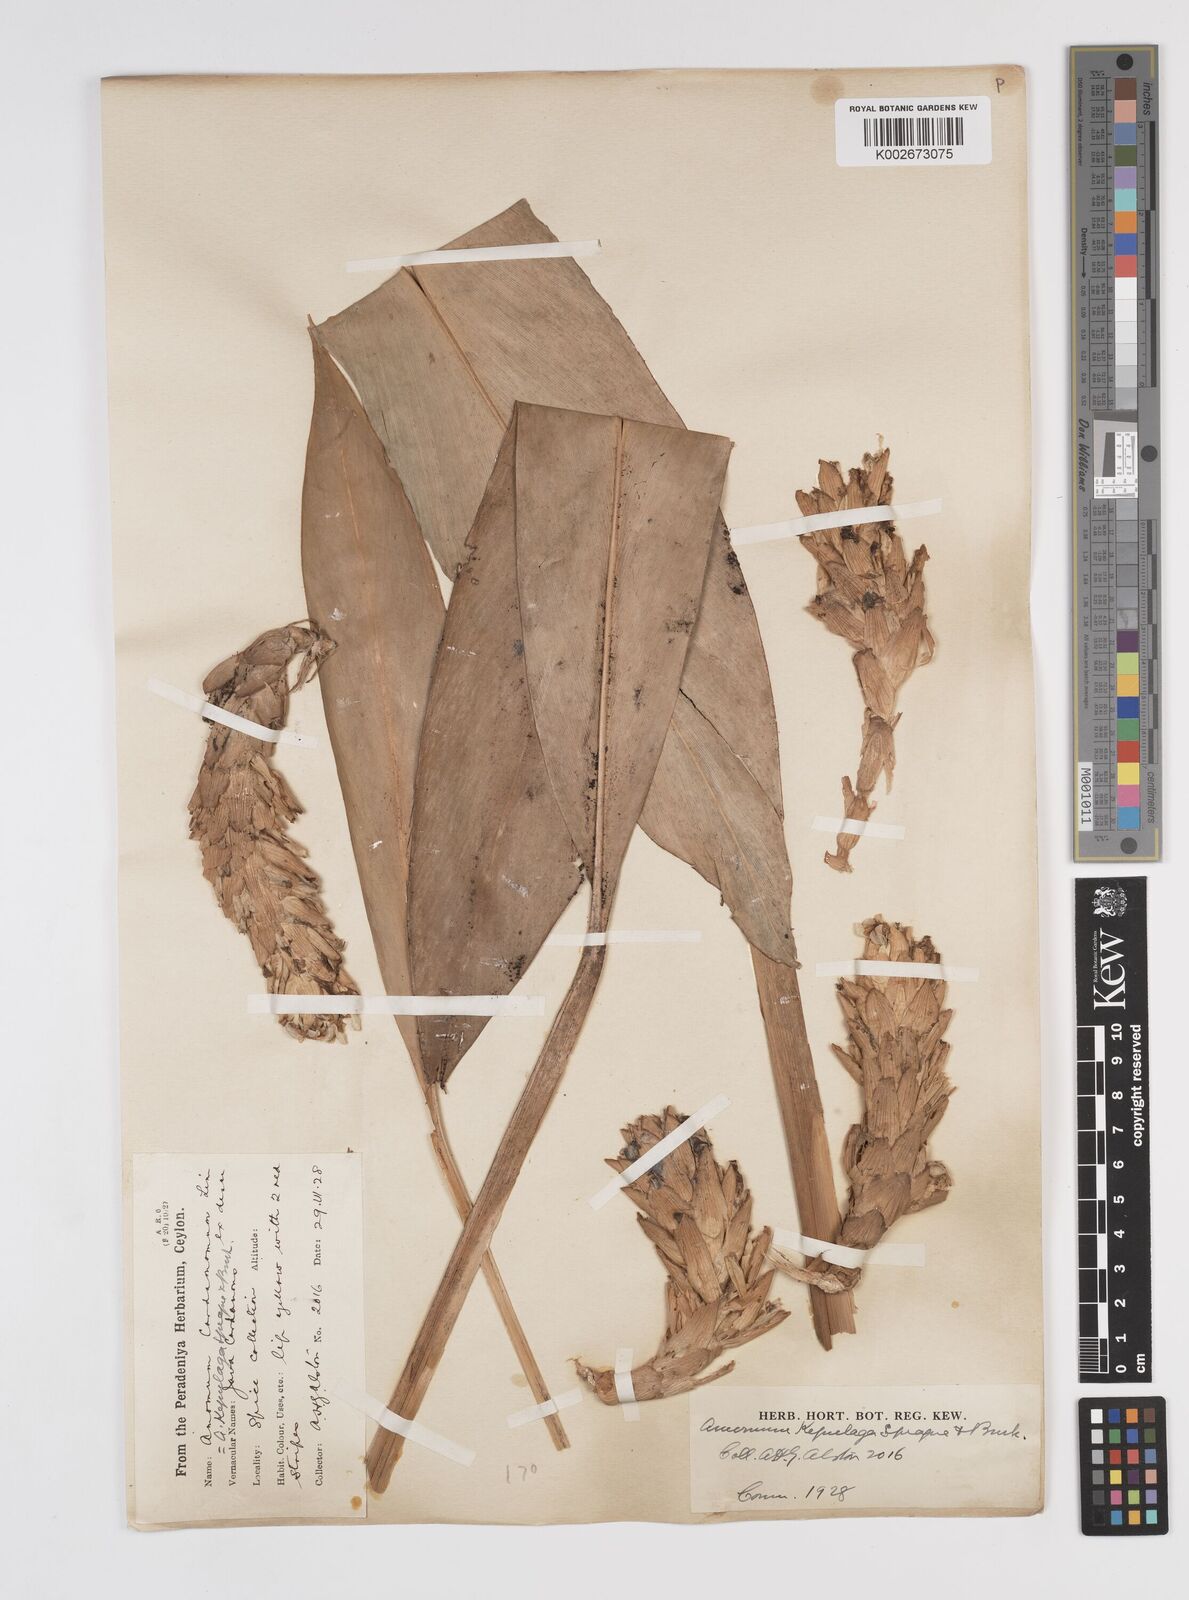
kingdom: Plantae
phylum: Tracheophyta
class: Liliopsida
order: Zingiberales
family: Zingiberaceae
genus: Wurfbainia
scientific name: Wurfbainia compacta
